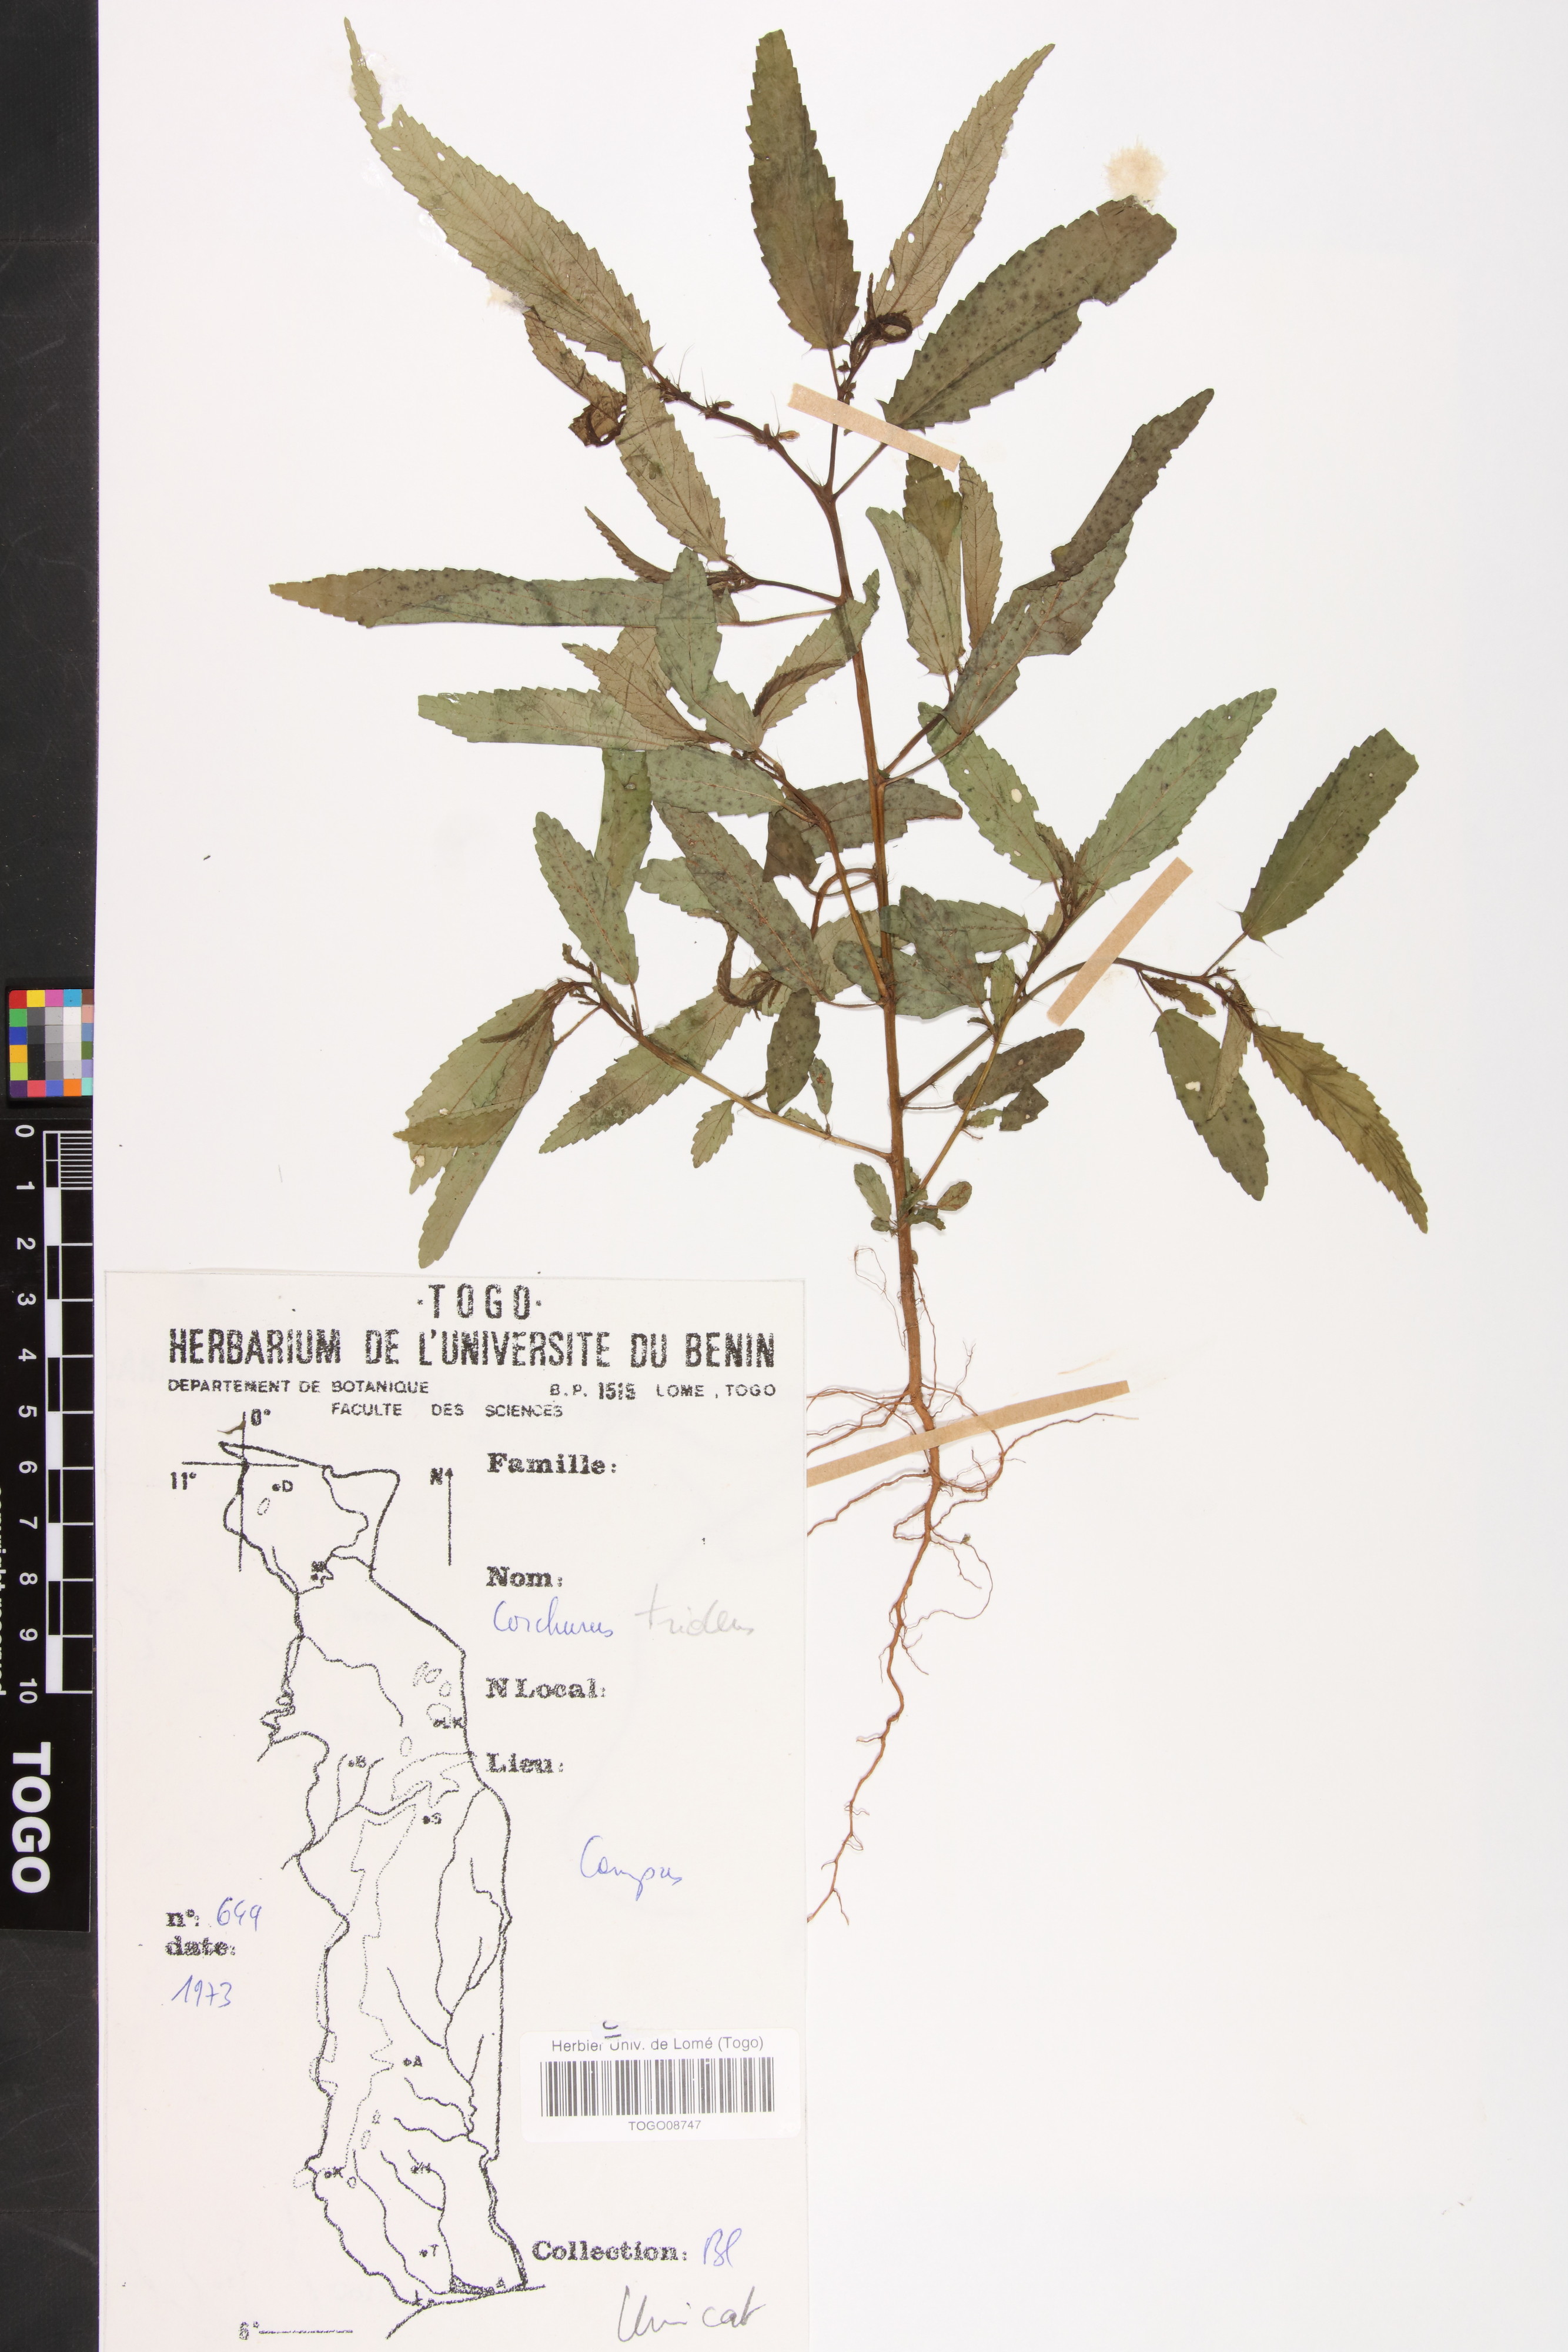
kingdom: Plantae
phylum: Tracheophyta
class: Magnoliopsida
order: Malvales
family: Malvaceae
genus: Corchorus
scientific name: Corchorus tridens
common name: Wild jute
